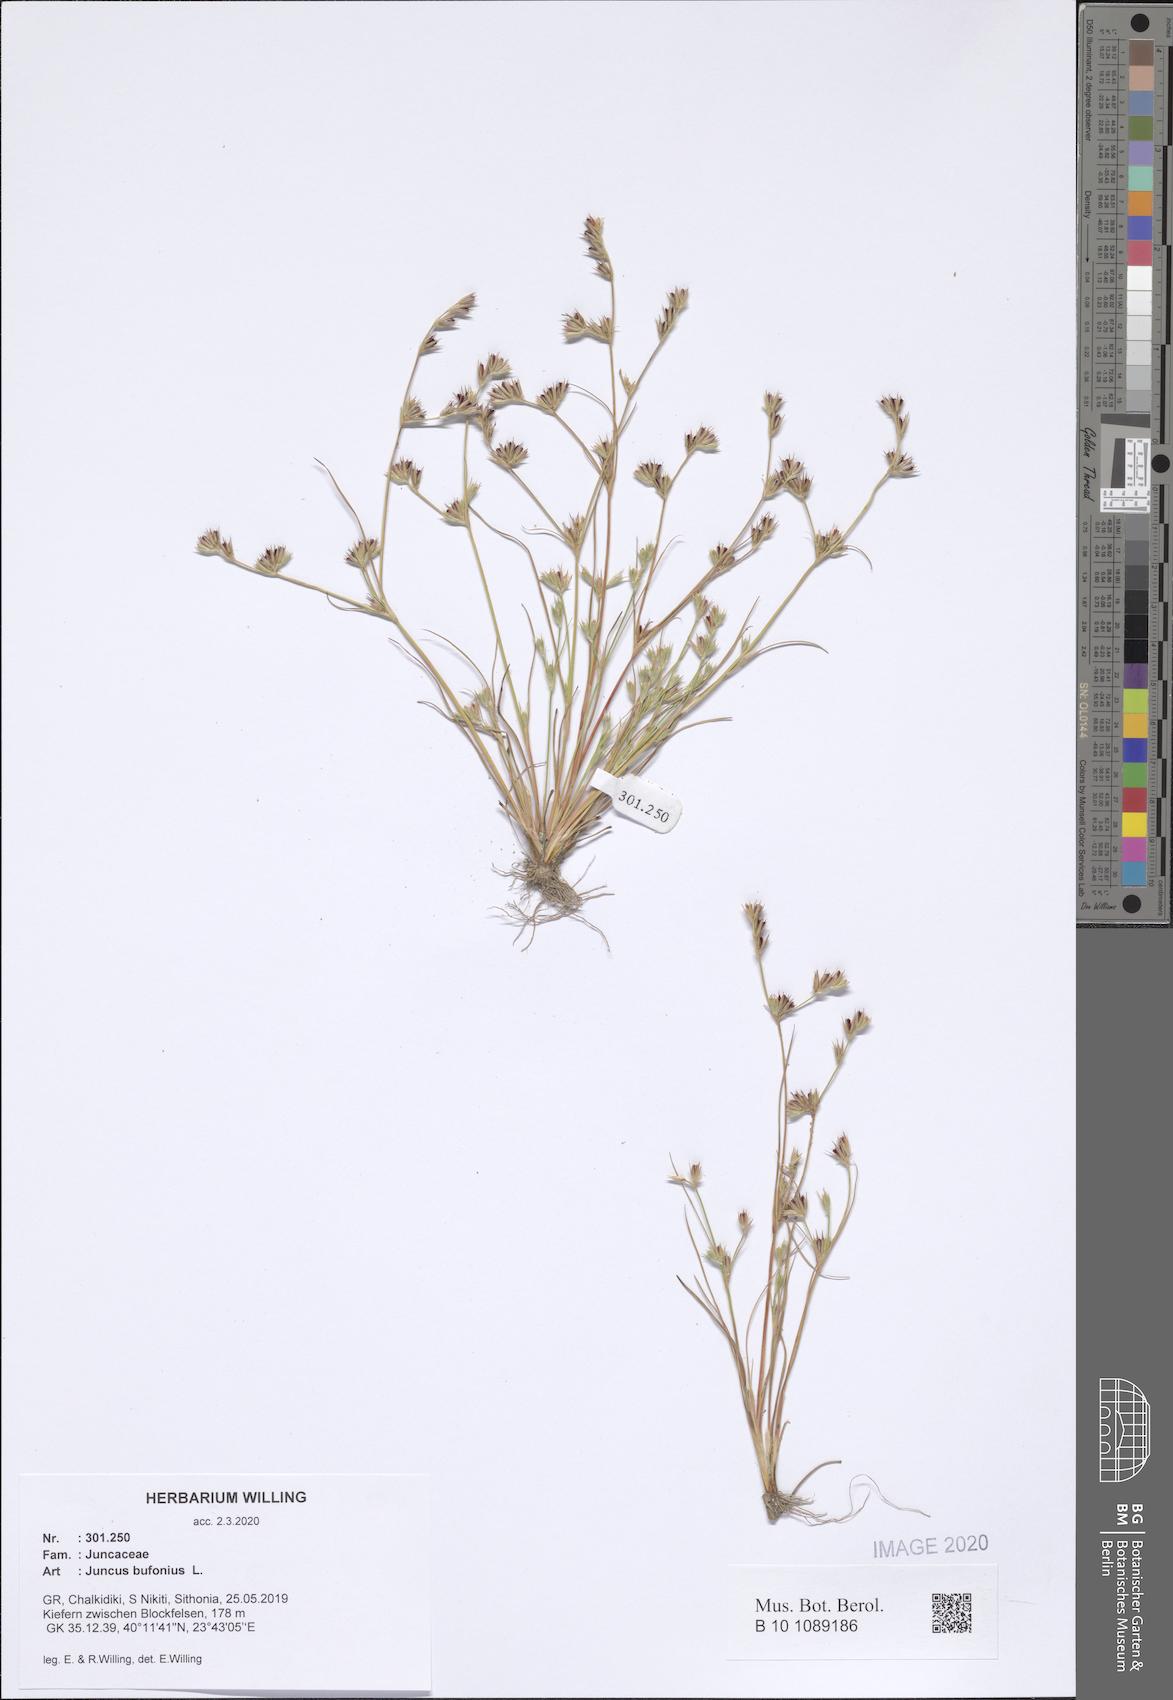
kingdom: Plantae
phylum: Tracheophyta
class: Liliopsida
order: Poales
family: Juncaceae
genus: Juncus
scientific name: Juncus bufonius
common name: Toad rush
